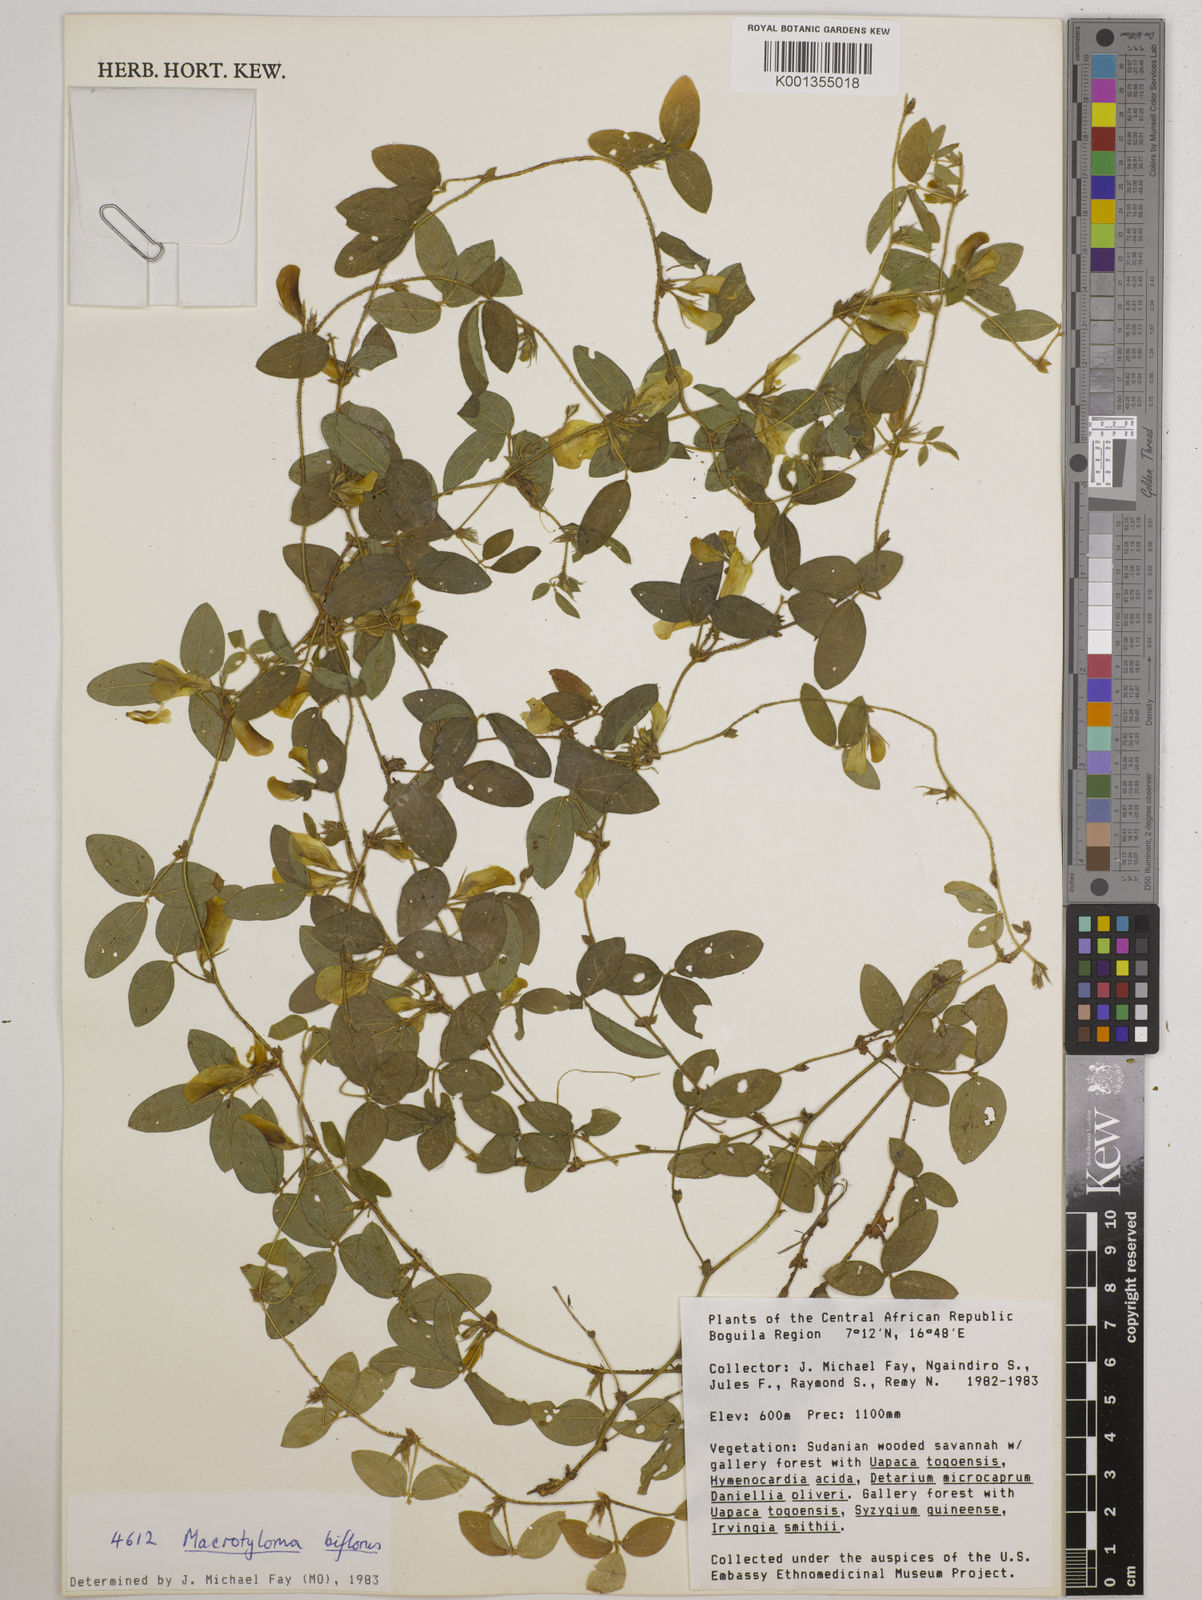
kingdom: Plantae
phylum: Tracheophyta
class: Magnoliopsida
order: Fabales
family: Fabaceae
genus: Macrotyloma
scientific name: Macrotyloma biflorum
